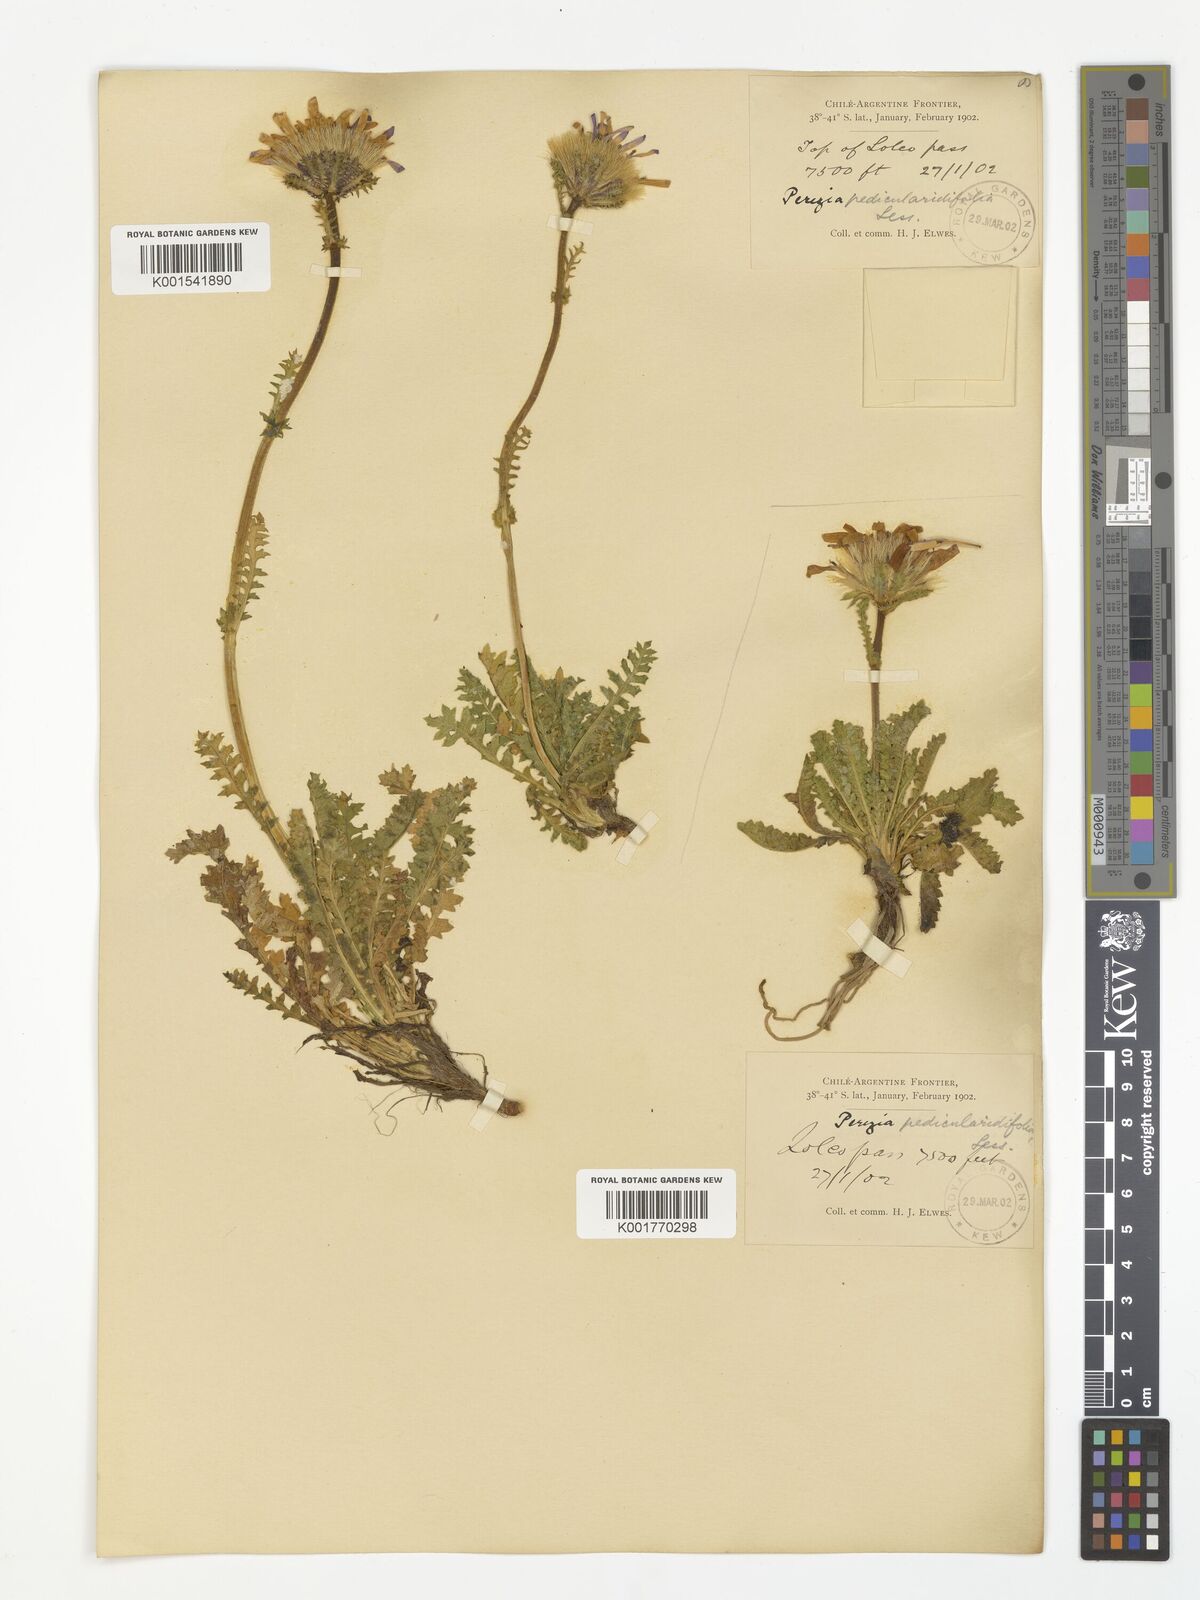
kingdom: Plantae
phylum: Tracheophyta
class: Magnoliopsida
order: Asterales
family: Asteraceae
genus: Perezia
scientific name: Perezia pedicularidifolia
